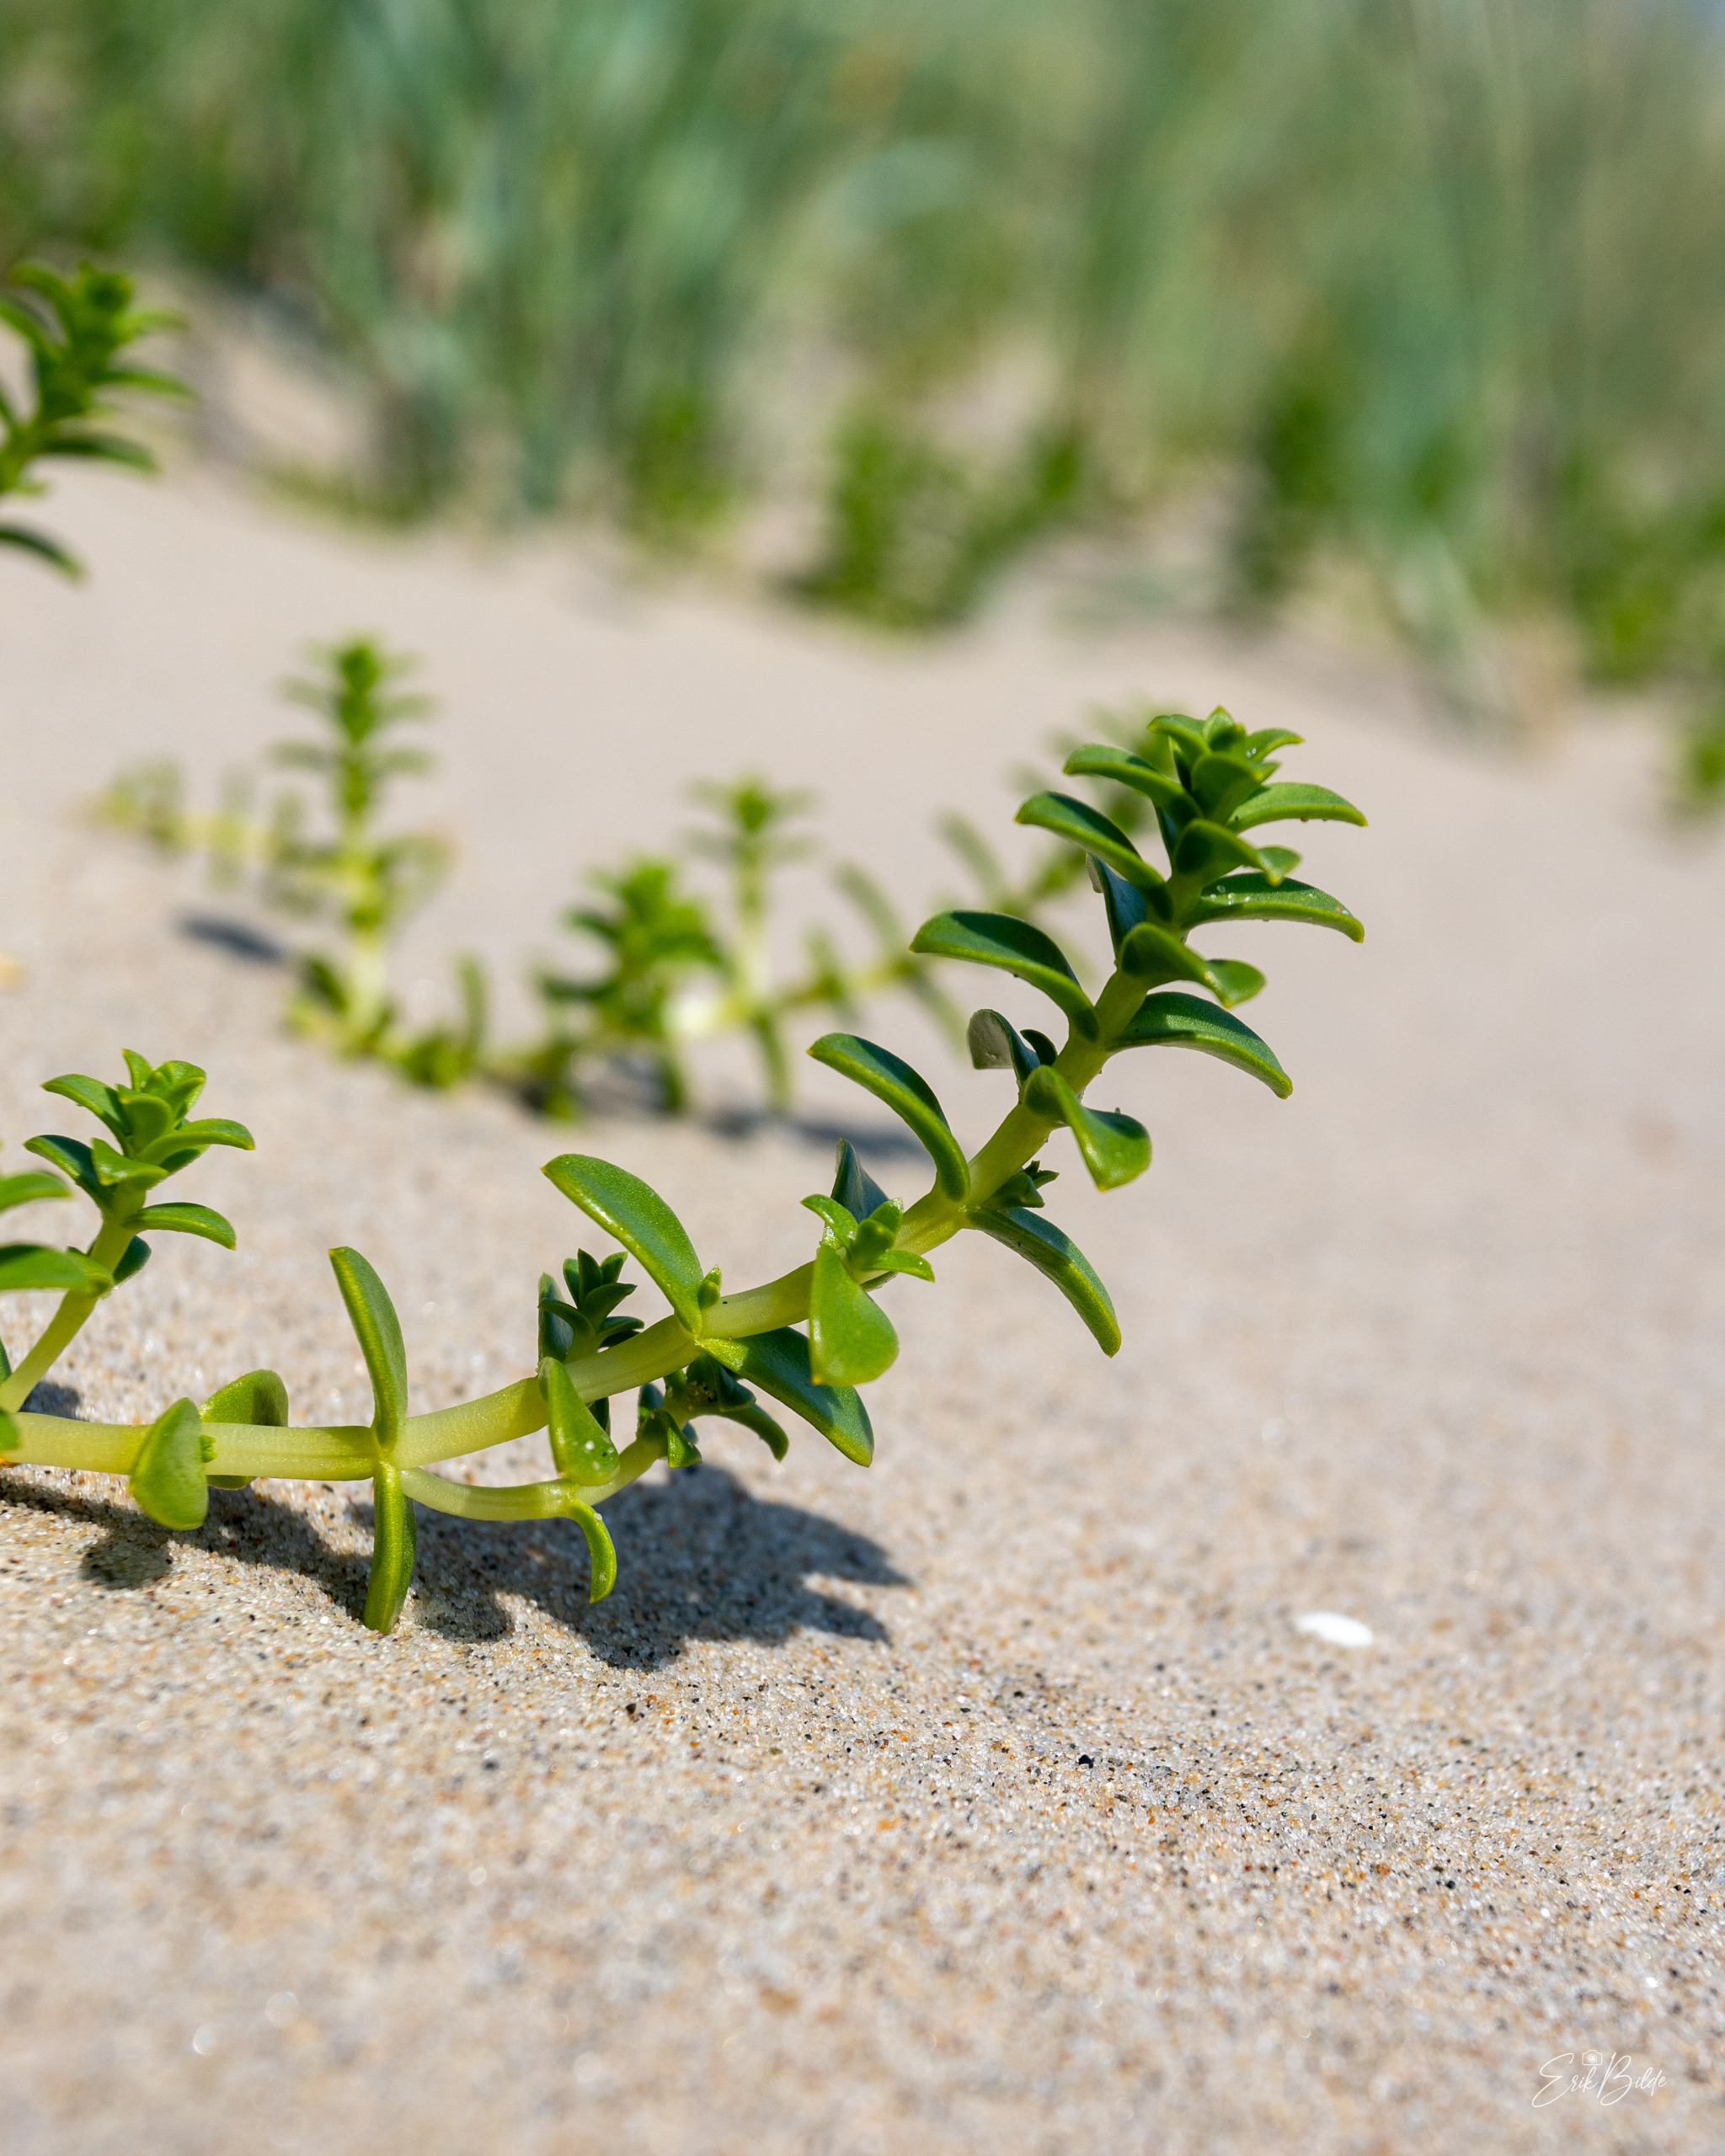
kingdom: Plantae
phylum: Tracheophyta
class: Magnoliopsida
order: Caryophyllales
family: Caryophyllaceae
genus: Honckenya
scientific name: Honckenya peploides
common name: Strandarve
